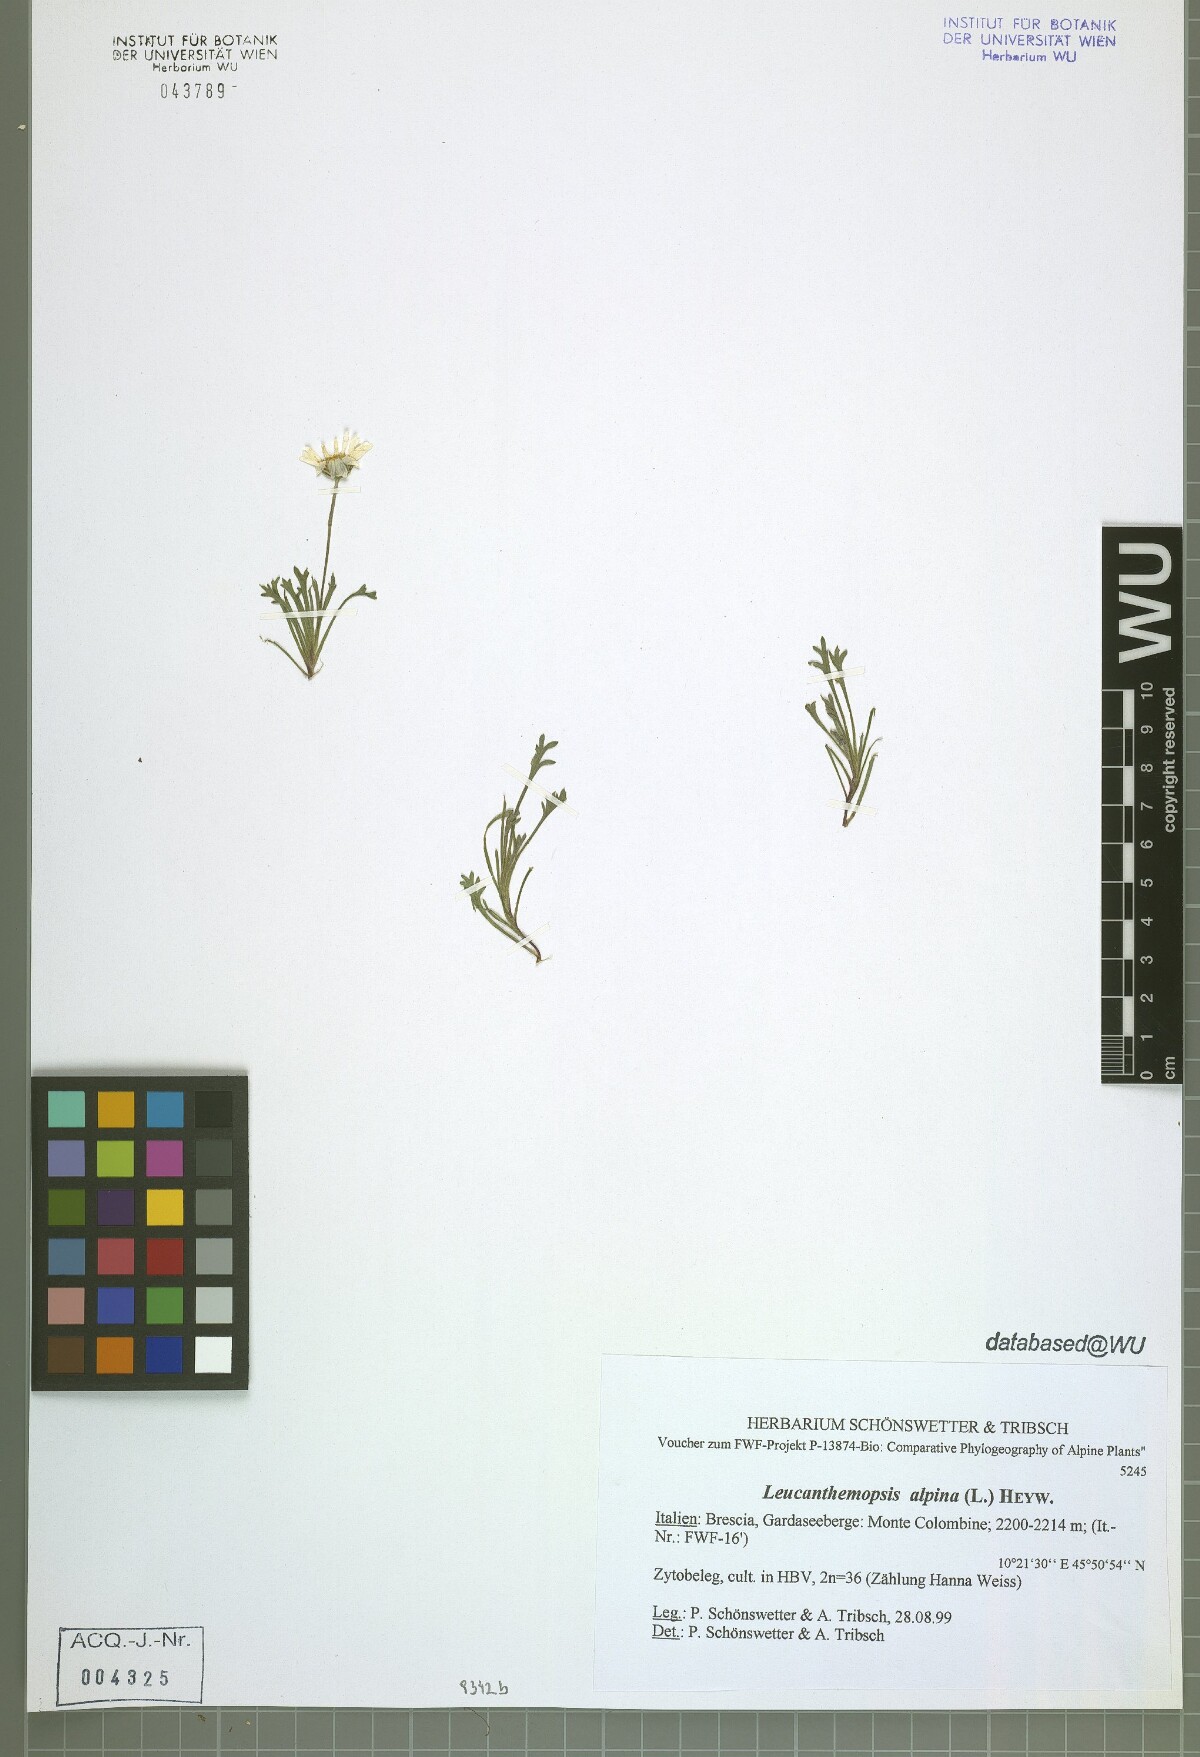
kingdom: Plantae
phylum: Tracheophyta
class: Magnoliopsida
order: Asterales
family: Asteraceae
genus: Leucanthemopsis
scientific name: Leucanthemopsis alpina
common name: Alpine moon daisy
